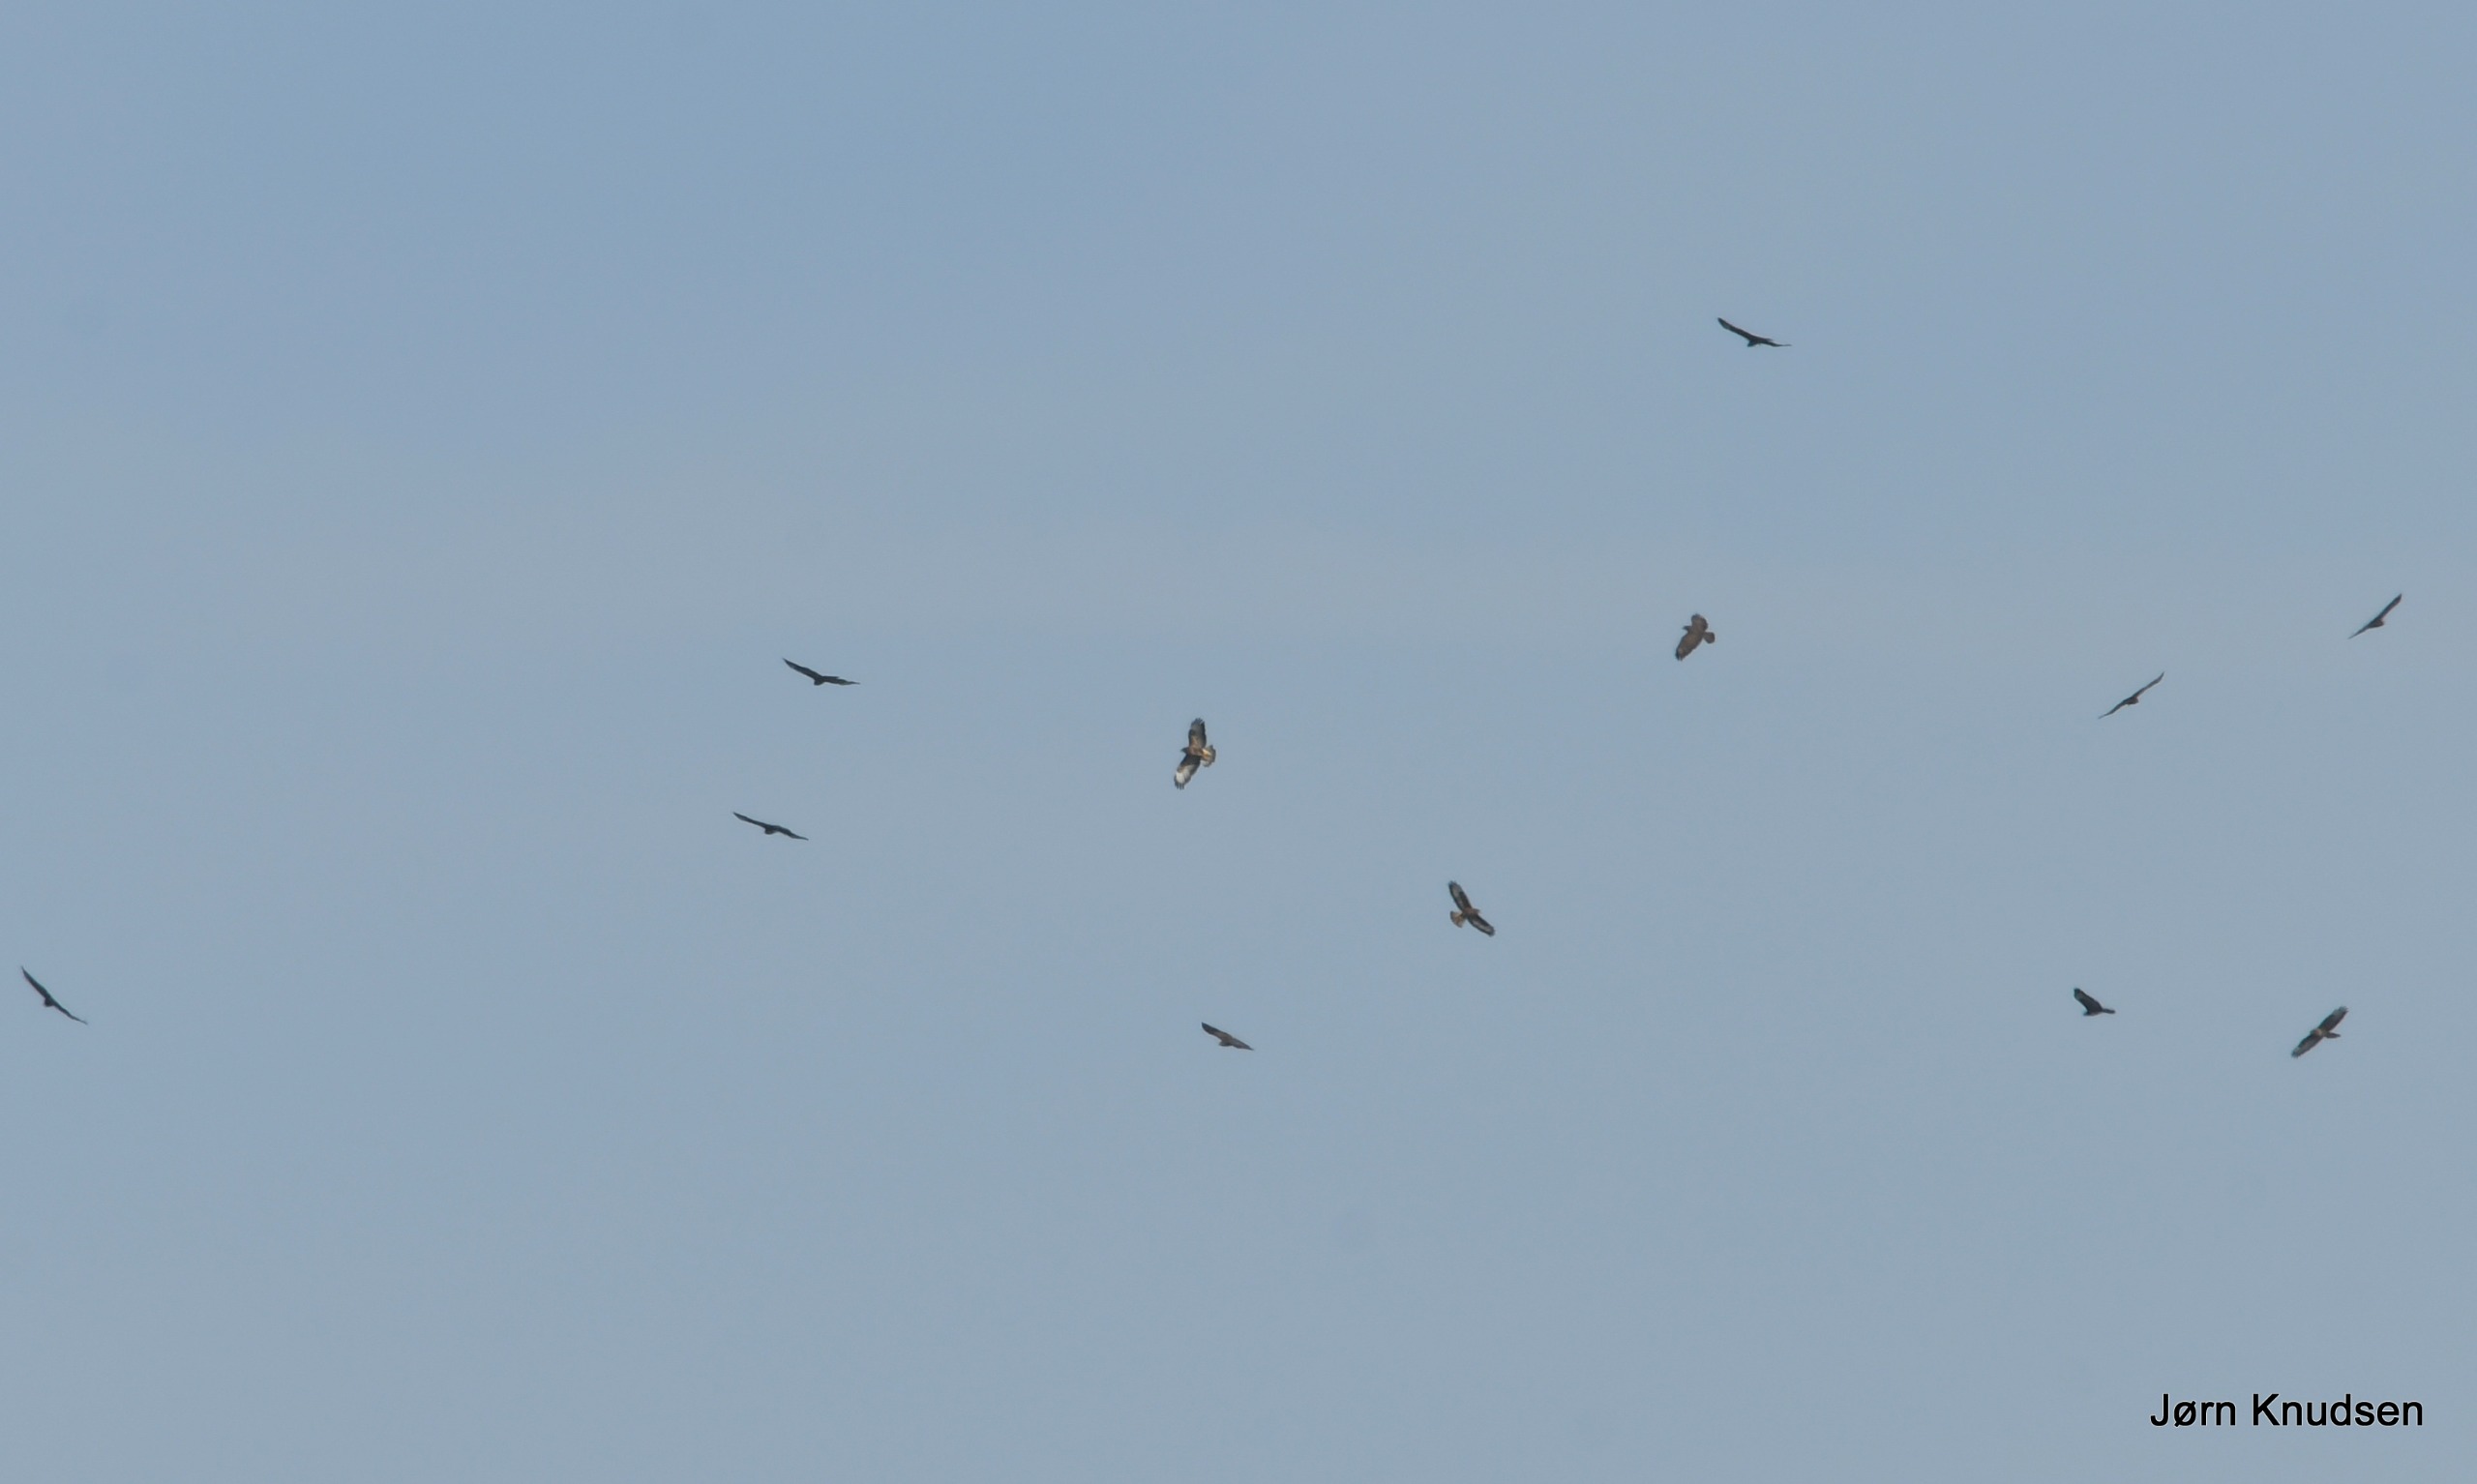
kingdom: Animalia
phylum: Chordata
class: Aves
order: Accipitriformes
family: Accipitridae
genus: Buteo
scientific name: Buteo buteo
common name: Musvåge
